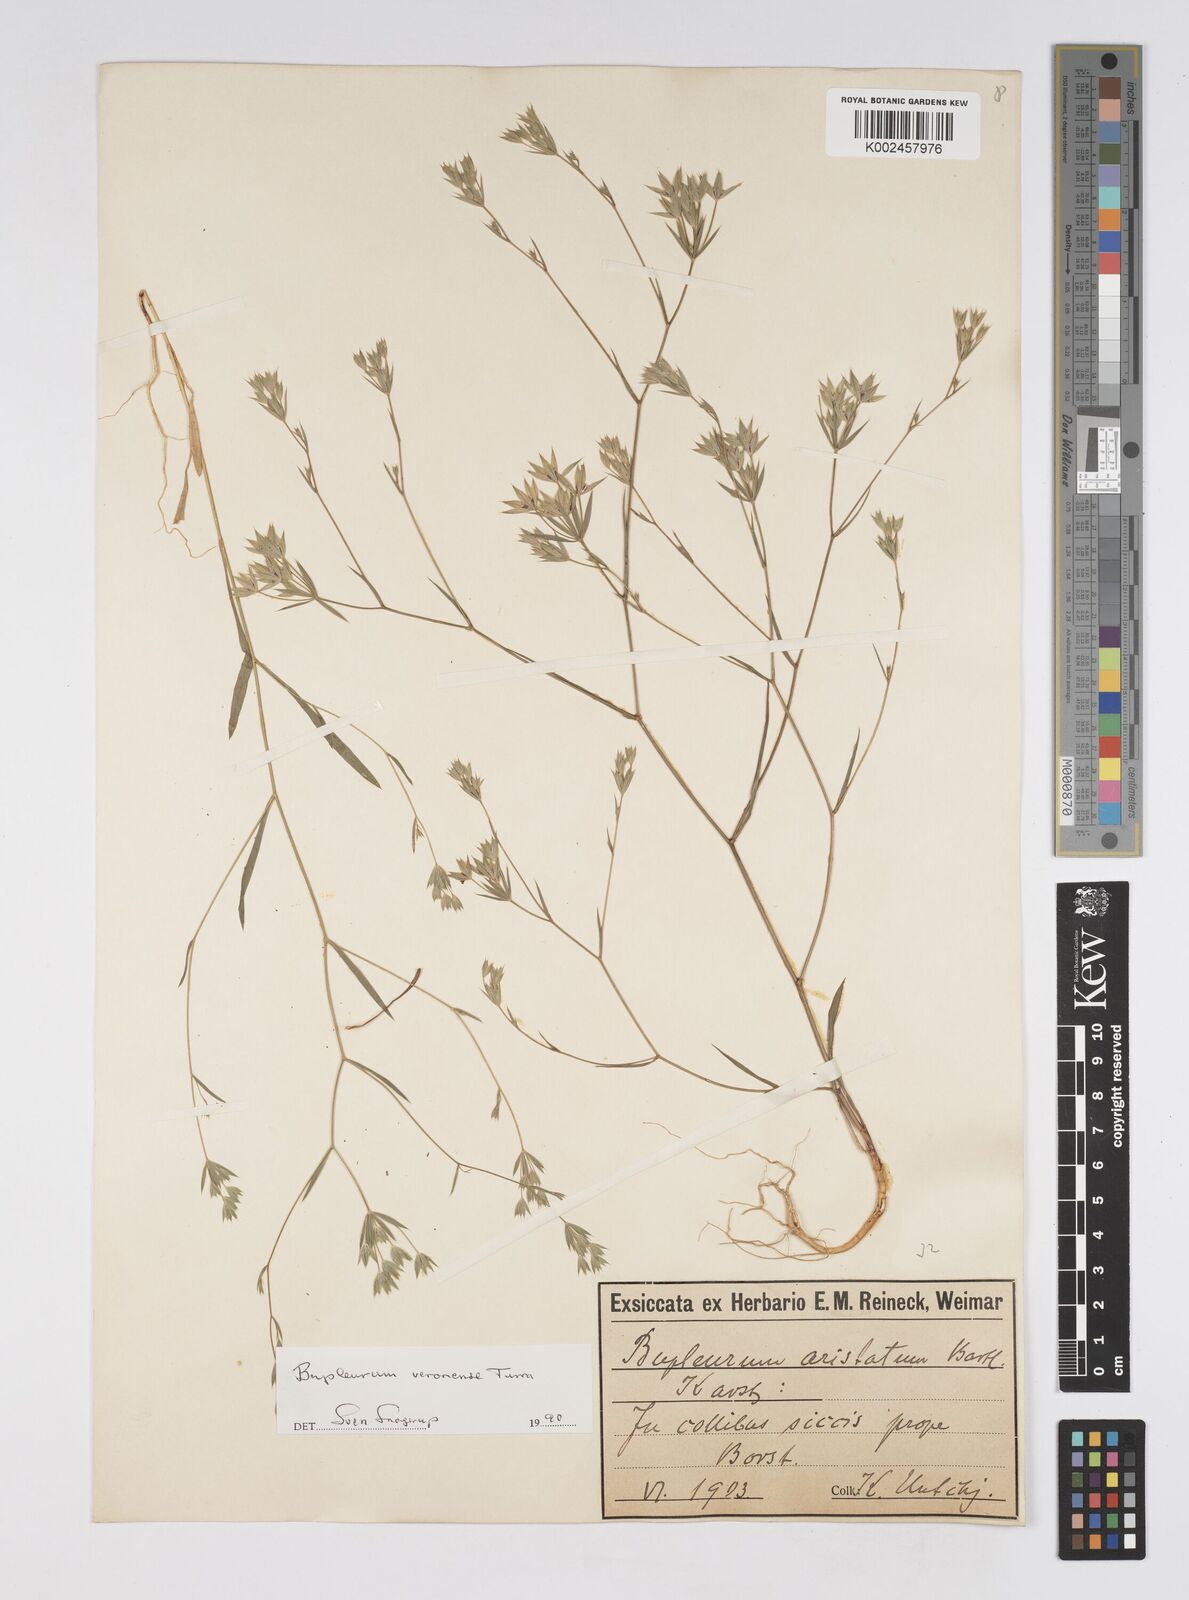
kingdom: Plantae
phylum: Tracheophyta
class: Magnoliopsida
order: Apiales
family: Apiaceae
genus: Bupleurum
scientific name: Bupleurum glumaceum
